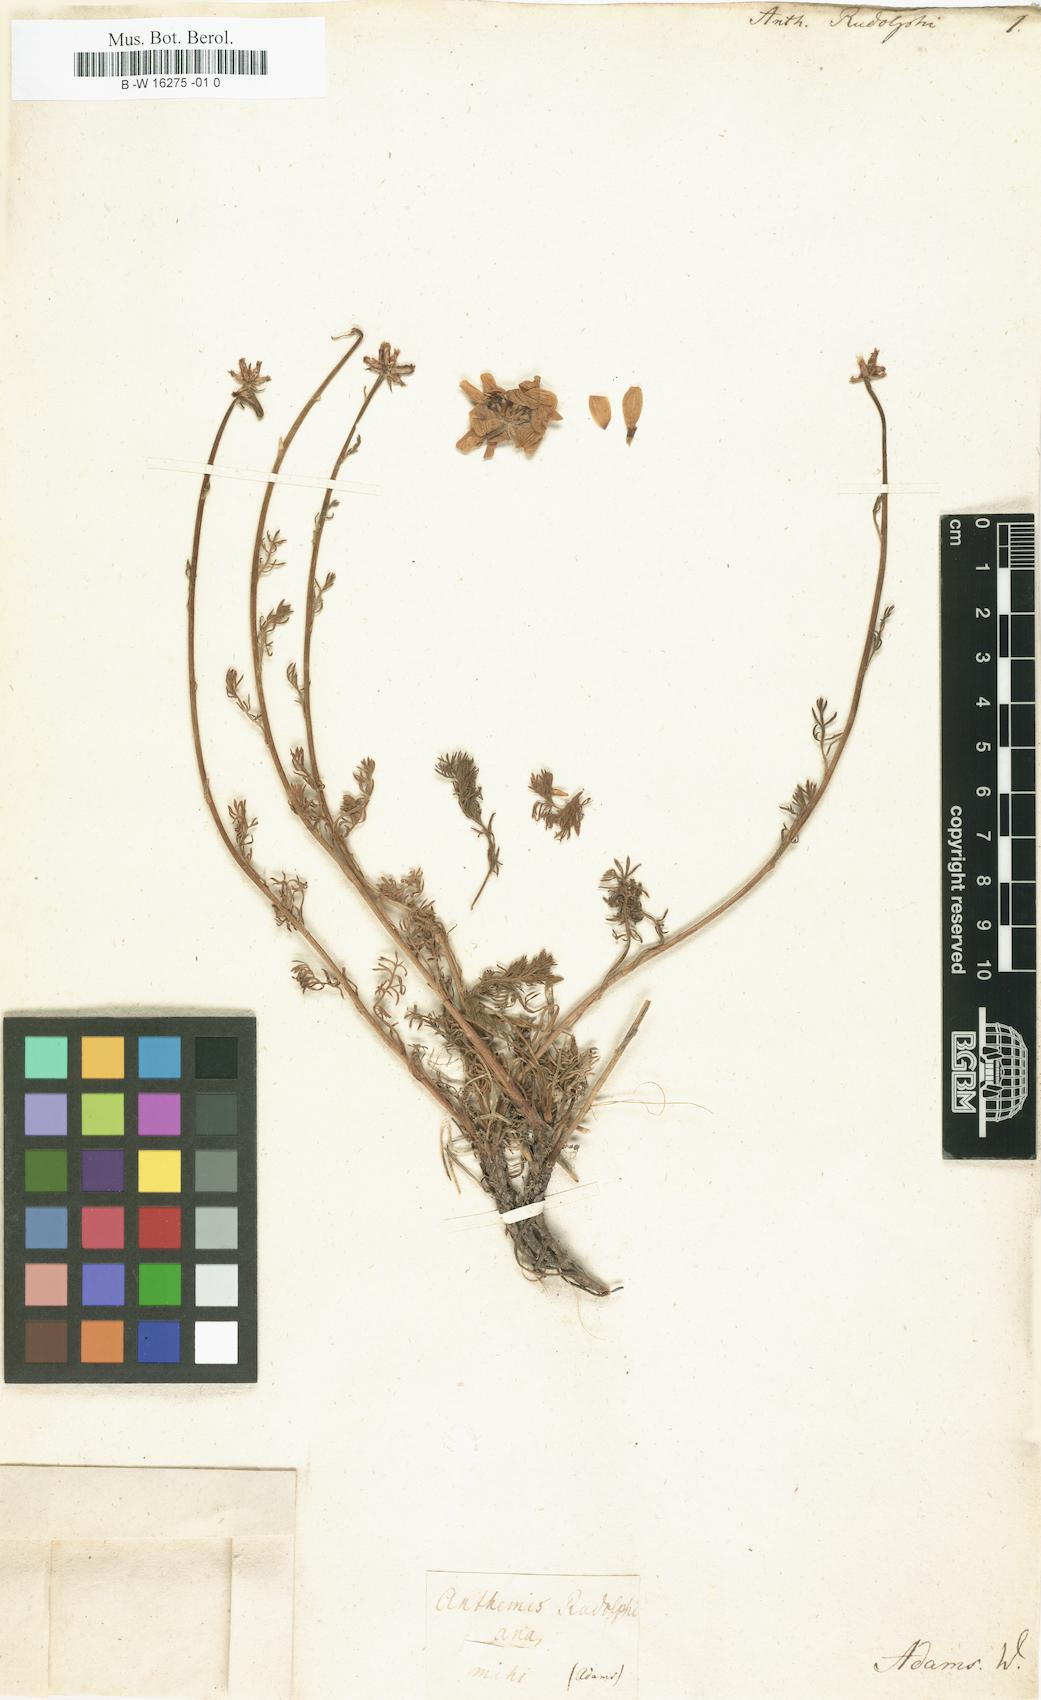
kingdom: Plantae
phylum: Tracheophyta
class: Magnoliopsida
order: Asterales
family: Asteraceae
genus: Anthemis
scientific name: Anthemis
